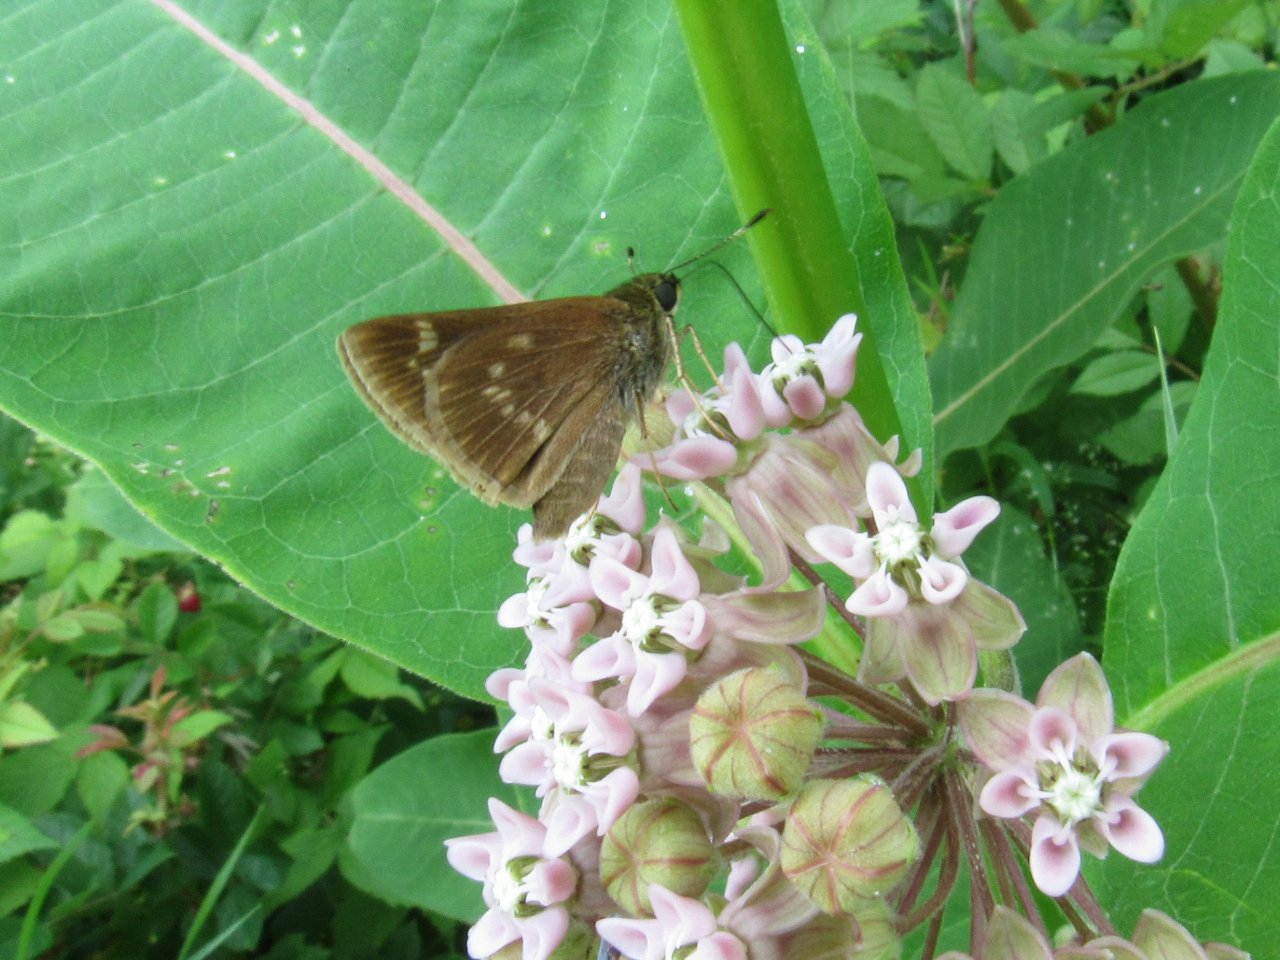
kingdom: Animalia
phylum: Arthropoda
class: Insecta
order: Lepidoptera
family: Hesperiidae
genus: Vernia
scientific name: Vernia verna
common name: Little Glassywing
